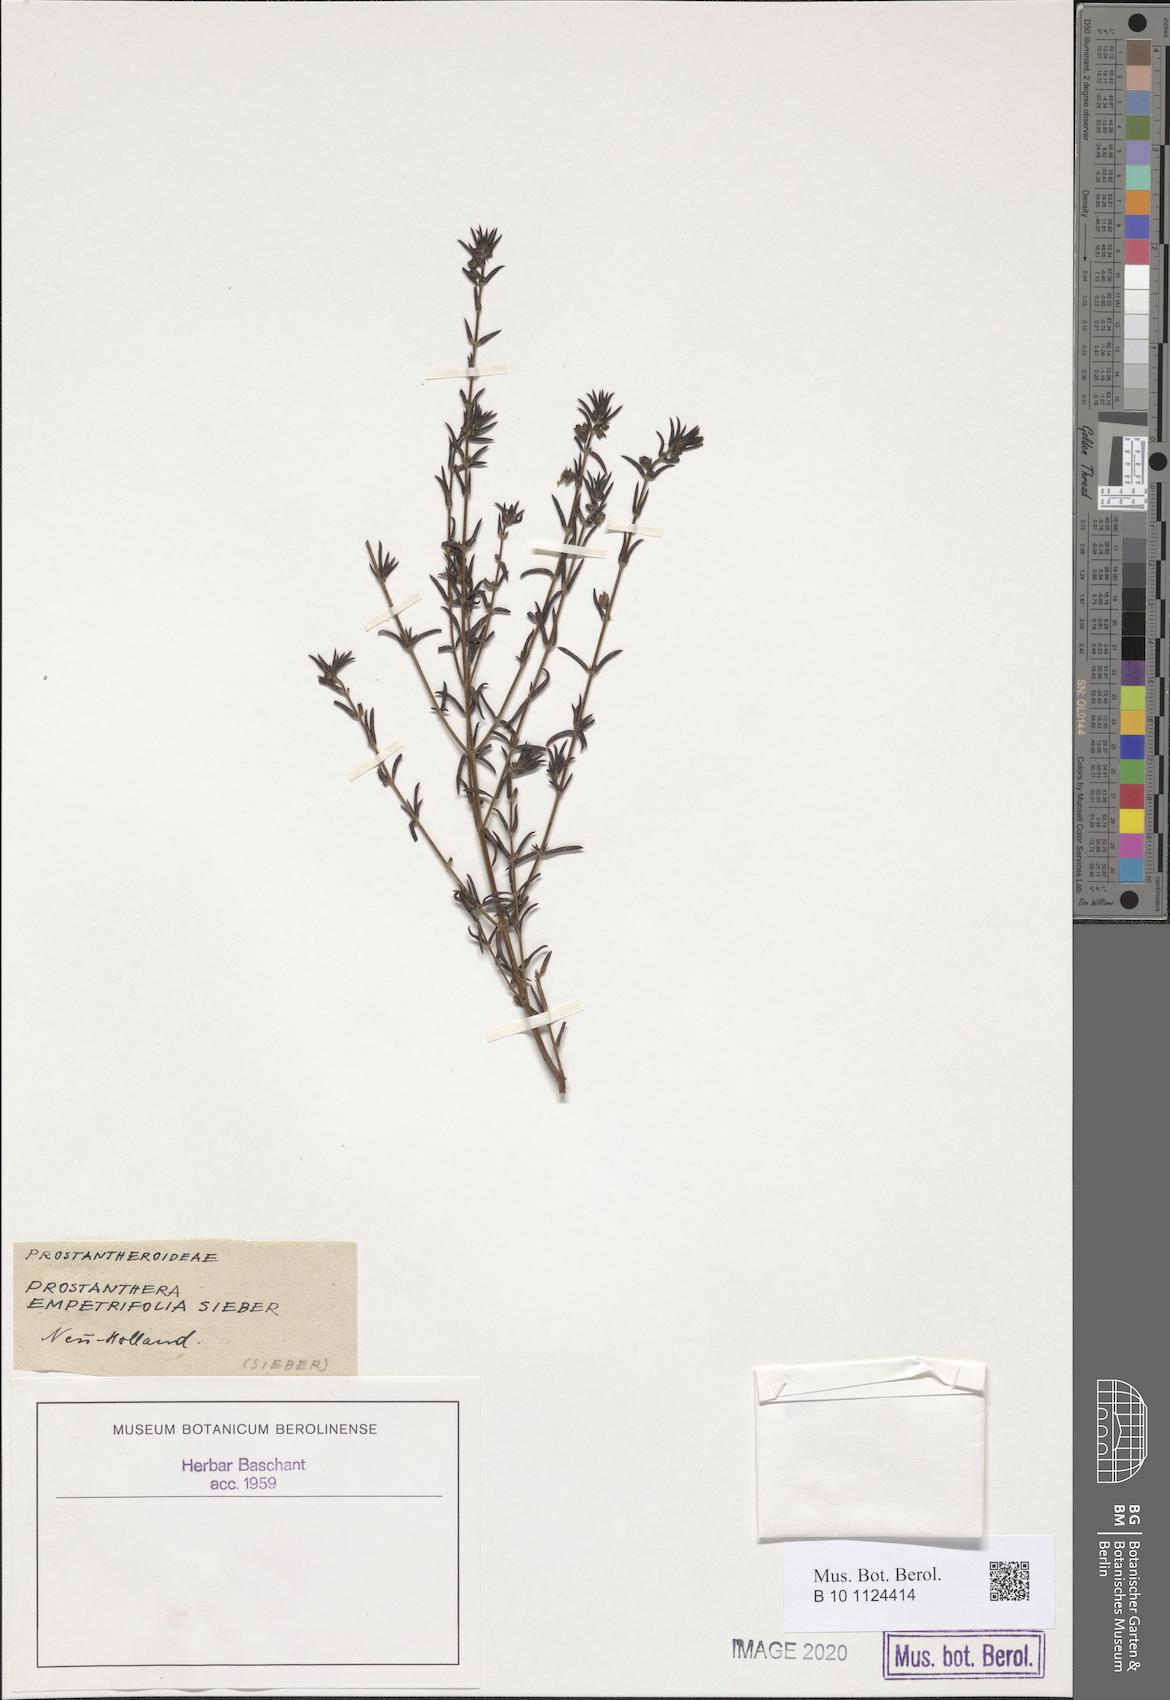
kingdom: Plantae
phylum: Tracheophyta
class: Magnoliopsida
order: Lamiales
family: Lamiaceae
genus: Prostanthera
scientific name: Prostanthera scutellarioides
